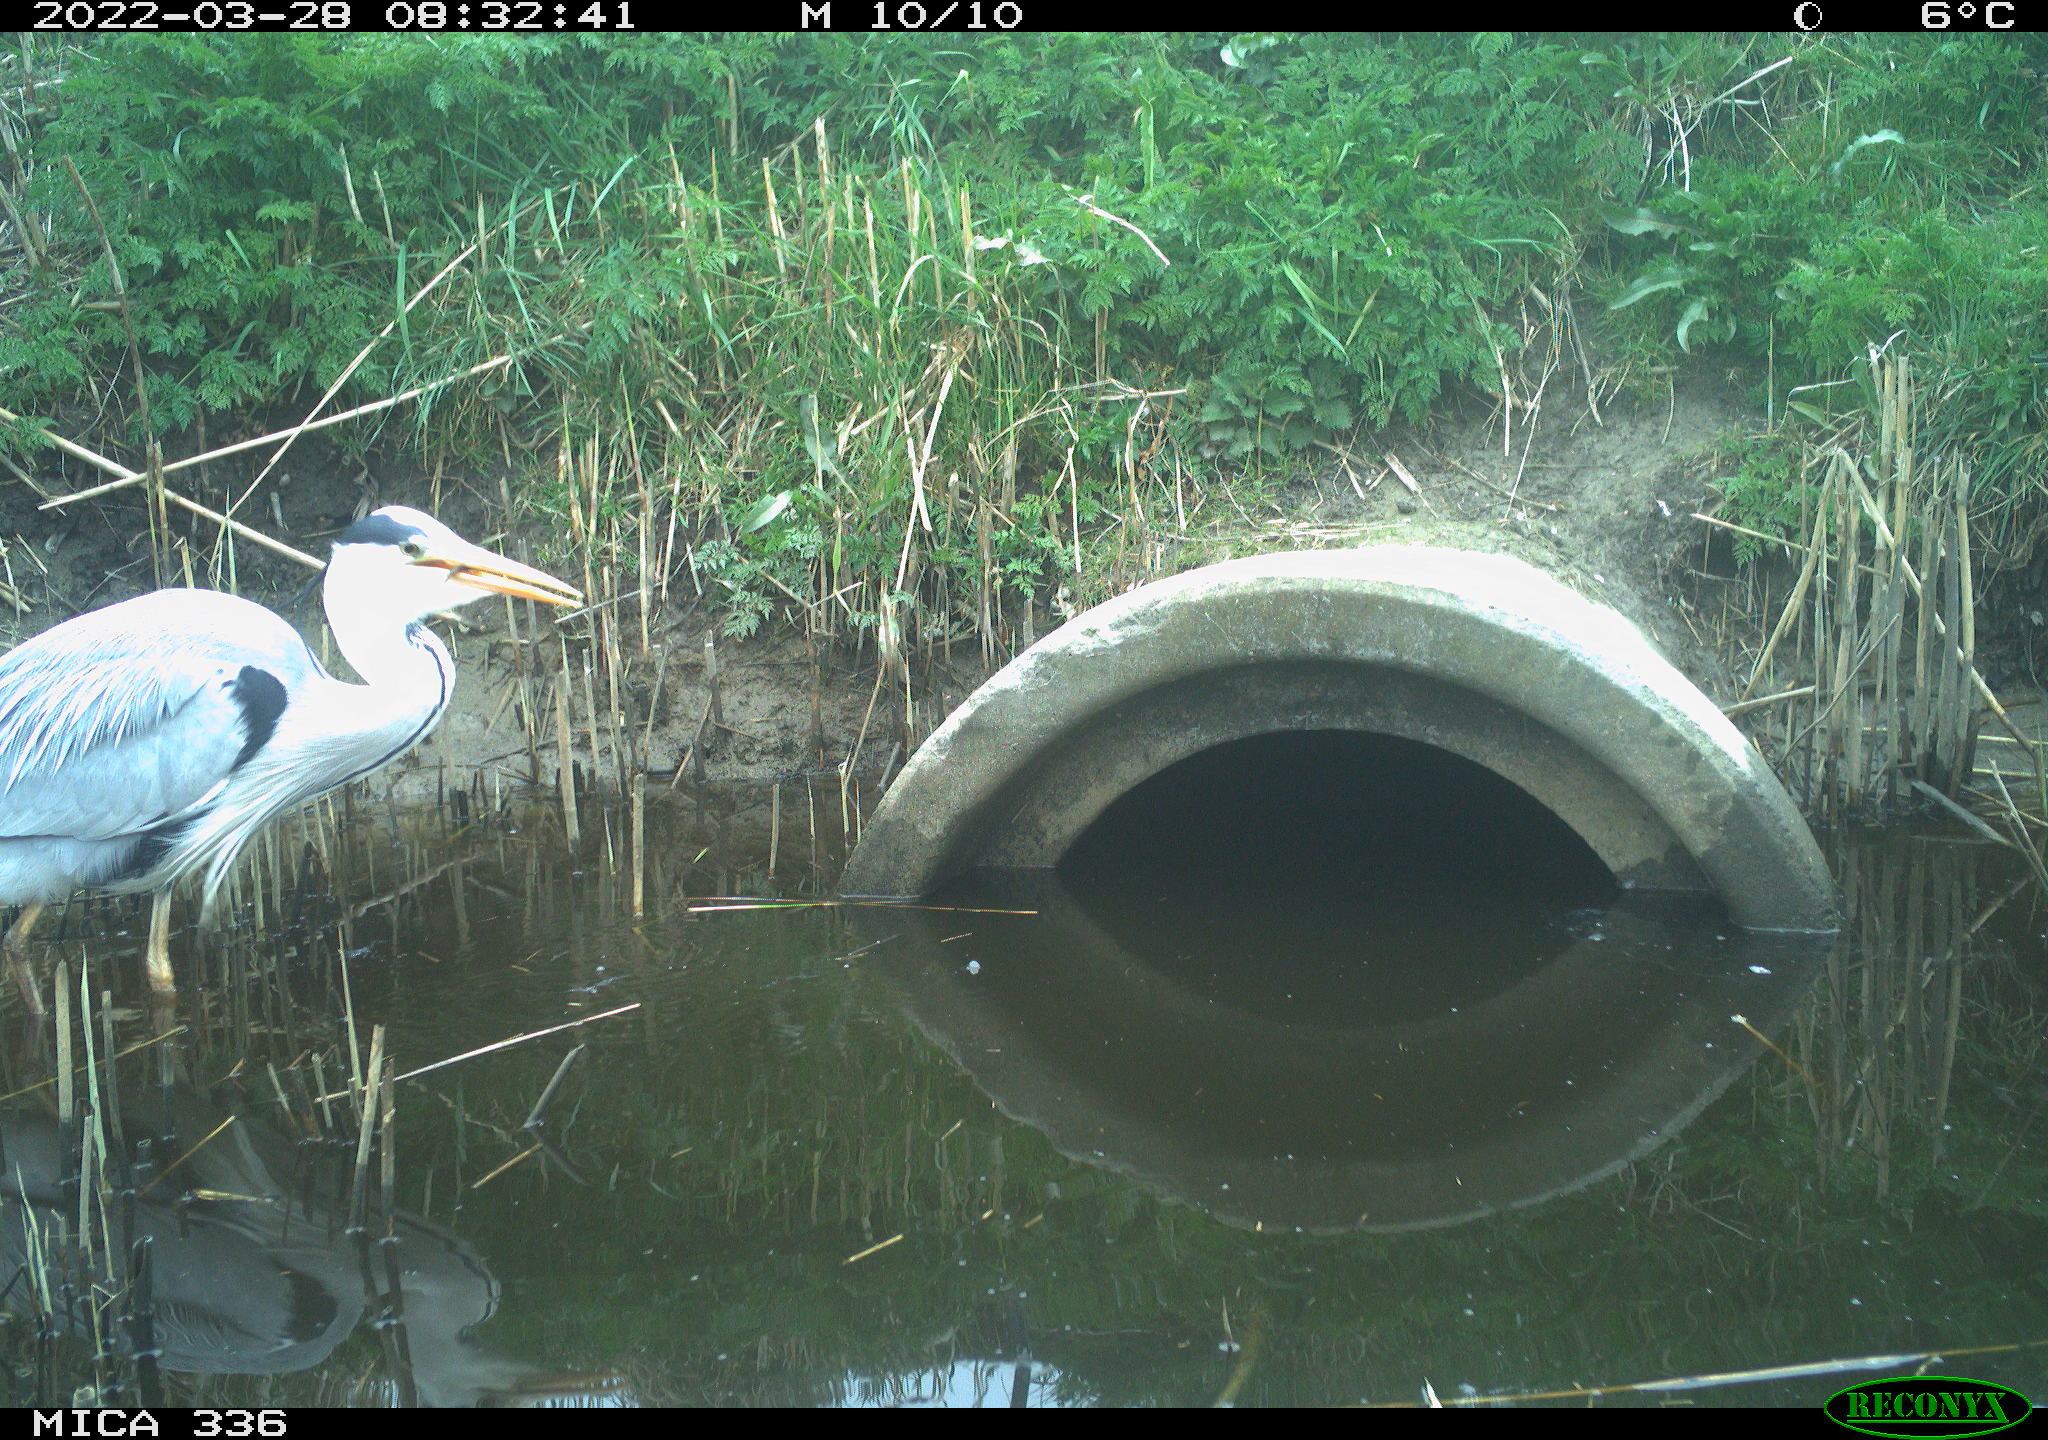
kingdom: Animalia
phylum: Chordata
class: Aves
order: Pelecaniformes
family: Ardeidae
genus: Ardea
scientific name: Ardea cinerea
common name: Grey heron
